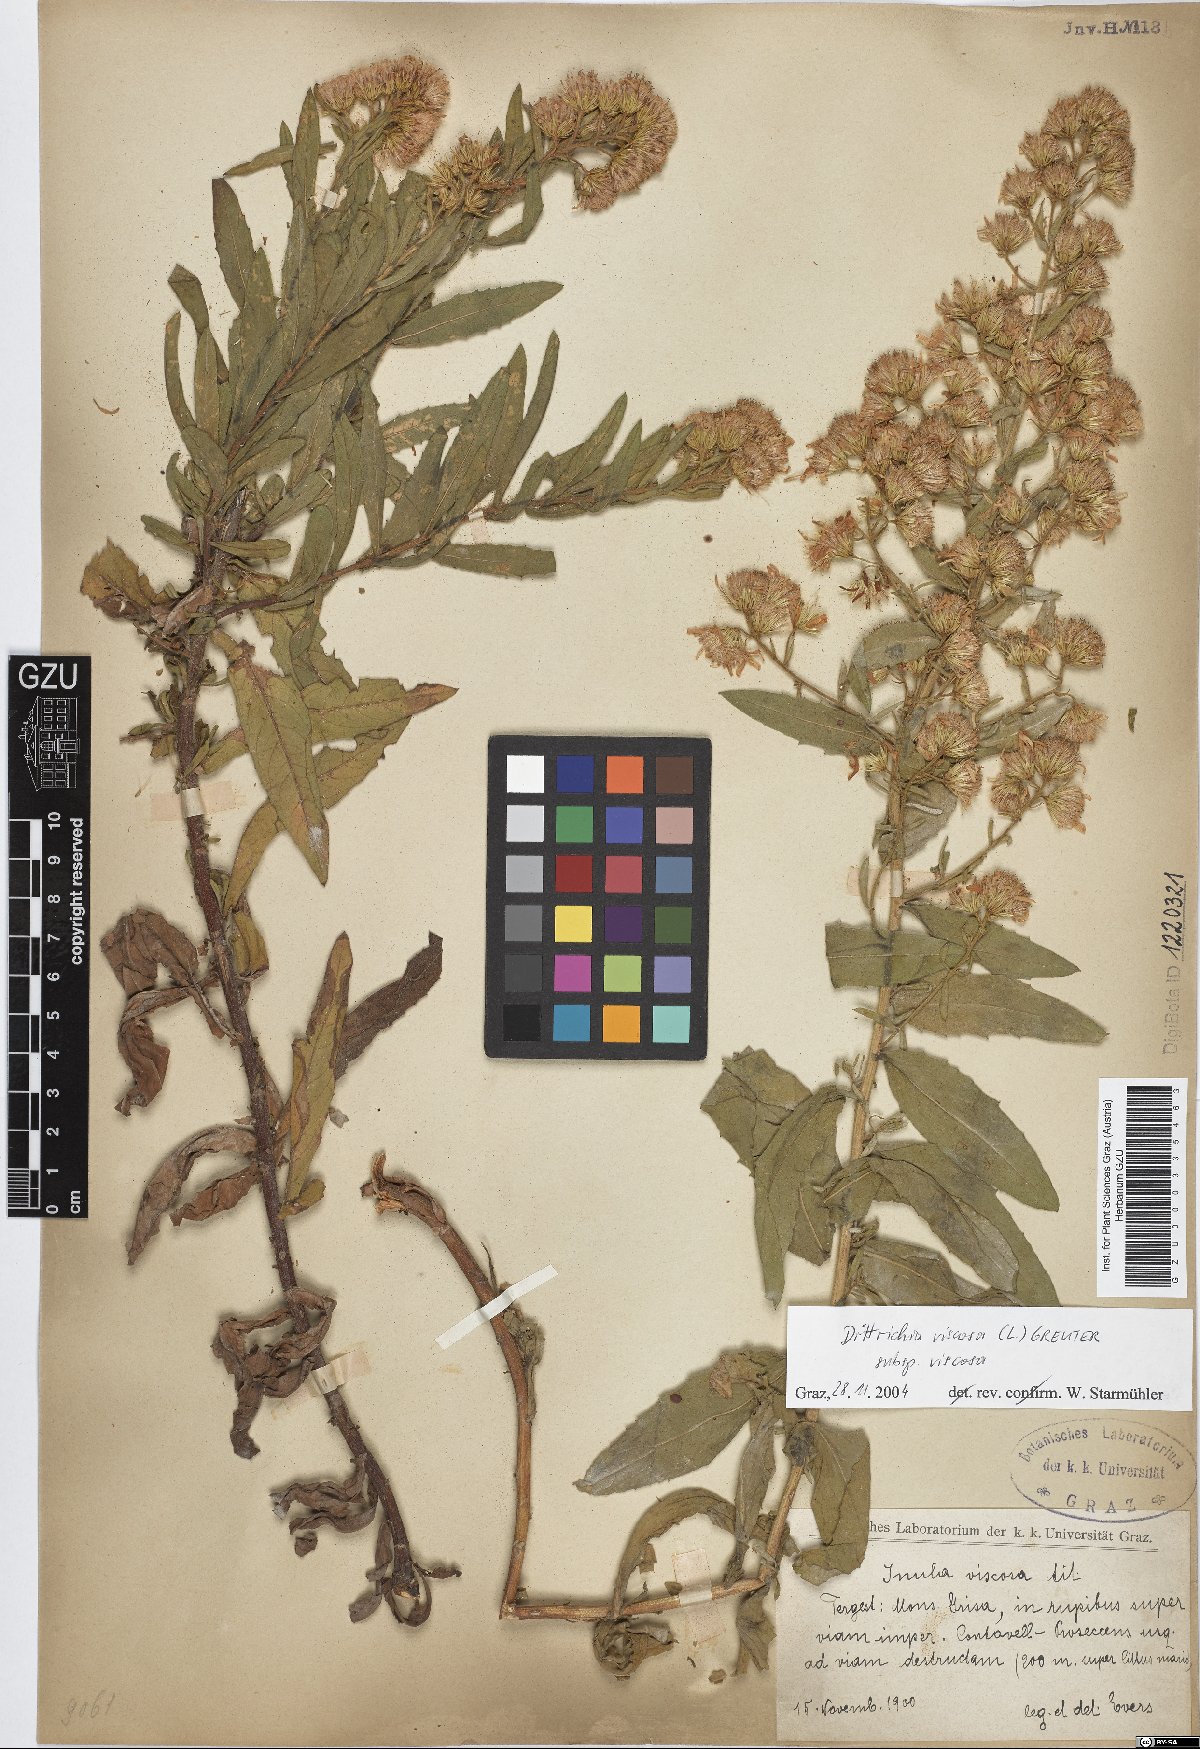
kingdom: Plantae
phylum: Tracheophyta
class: Magnoliopsida
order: Asterales
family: Asteraceae
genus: Dittrichia
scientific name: Dittrichia viscosa
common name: Woody fleabane
